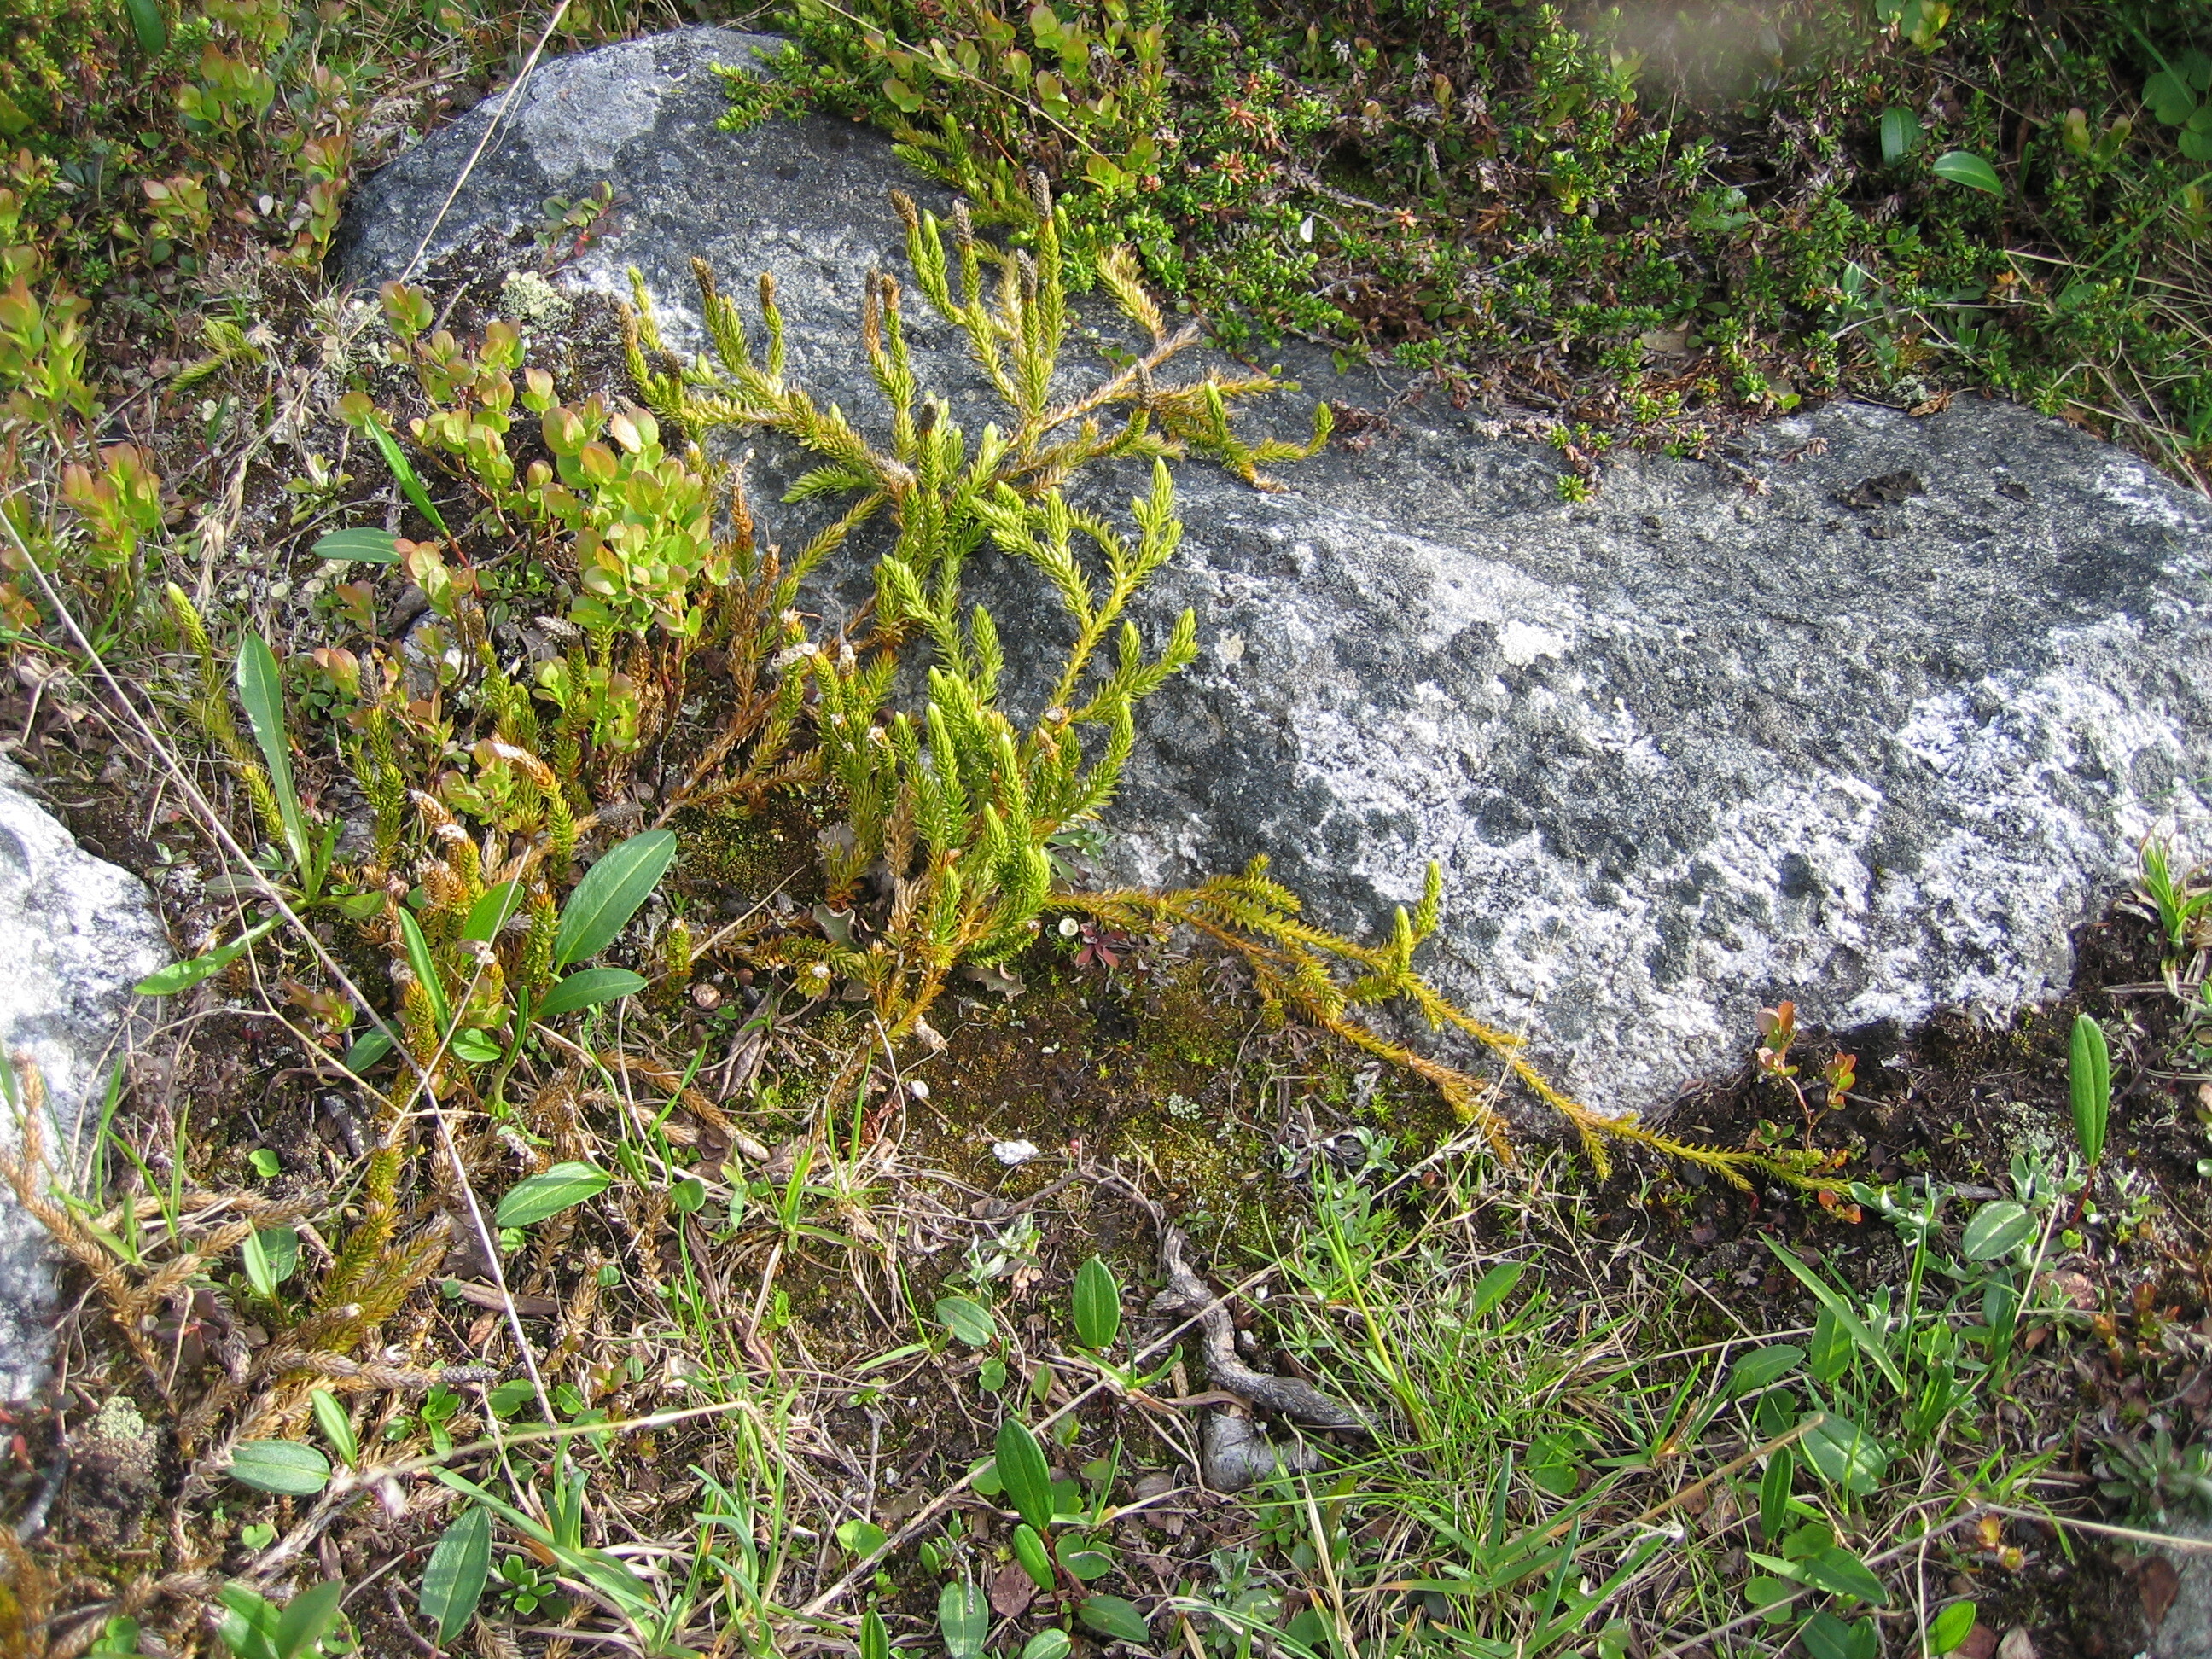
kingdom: Plantae
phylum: Tracheophyta
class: Lycopodiopsida
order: Lycopodiales
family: Lycopodiaceae
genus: Spinulum
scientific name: Spinulum annotinum
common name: Interrupted club-moss
